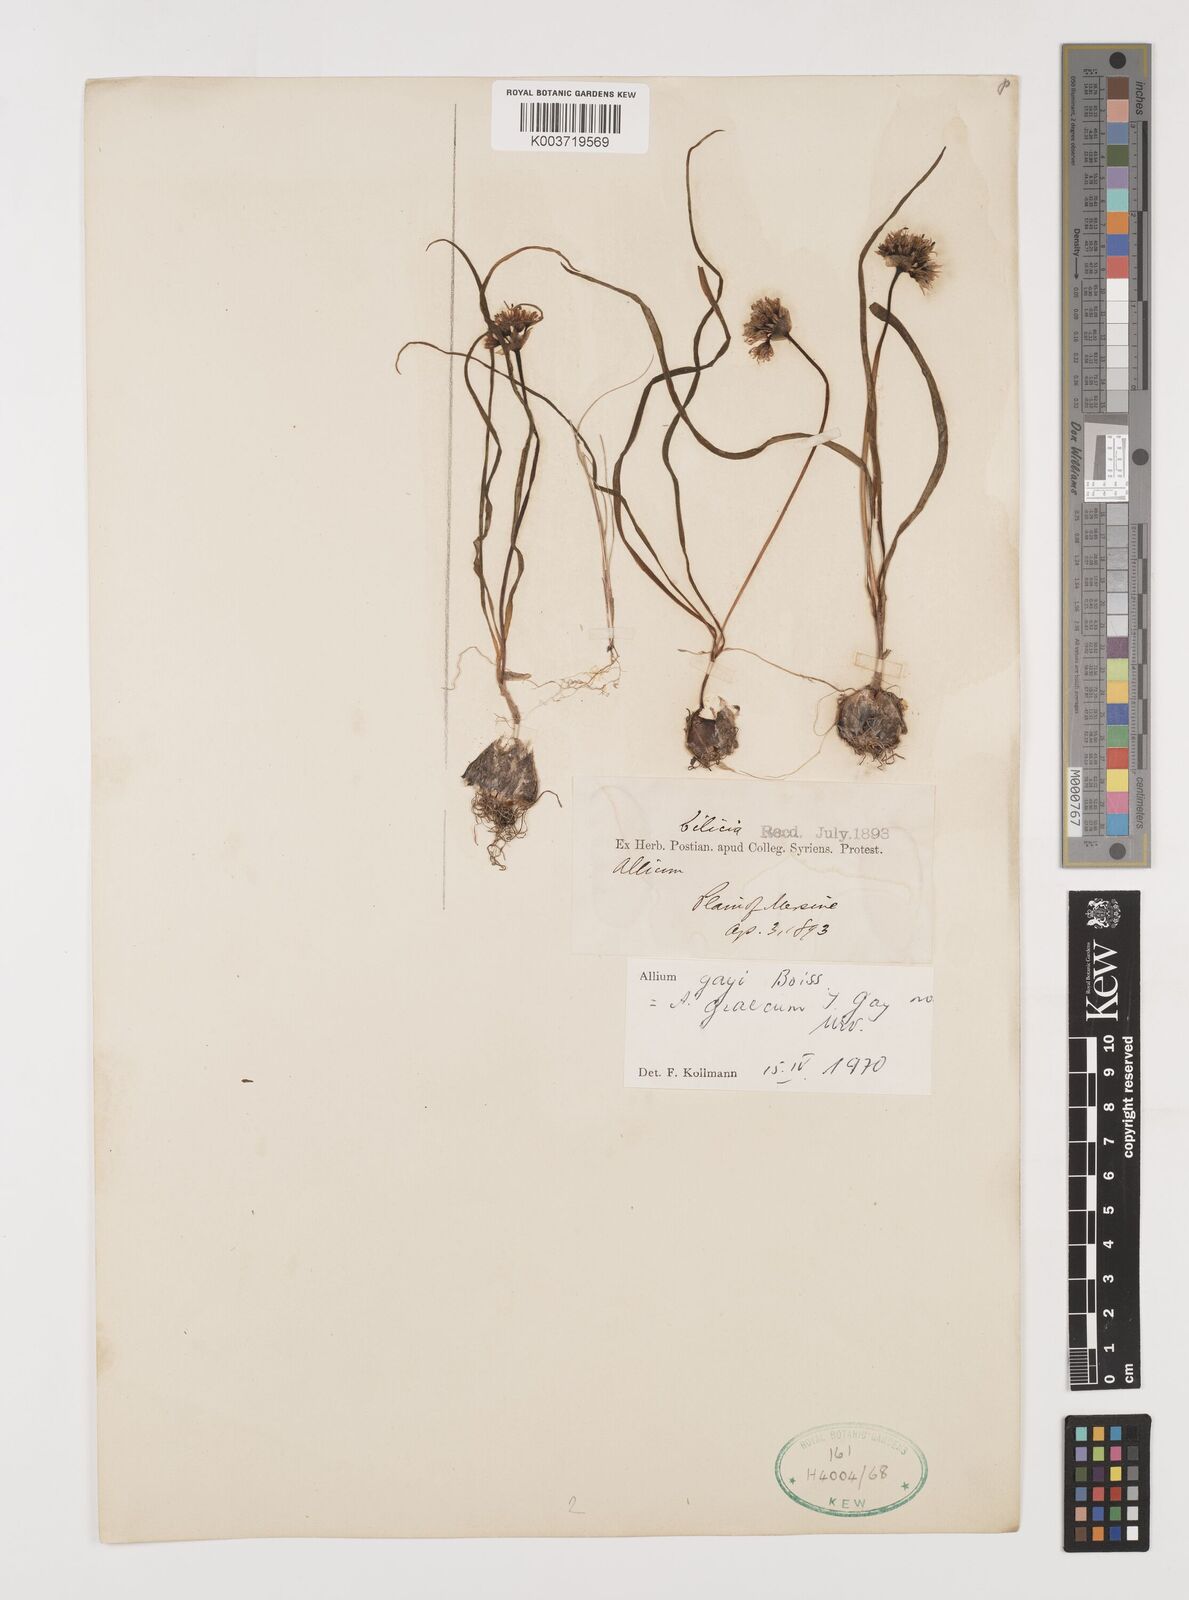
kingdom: Plantae
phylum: Tracheophyta
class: Liliopsida
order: Asparagales
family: Amaryllidaceae
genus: Allium
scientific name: Allium orientale
